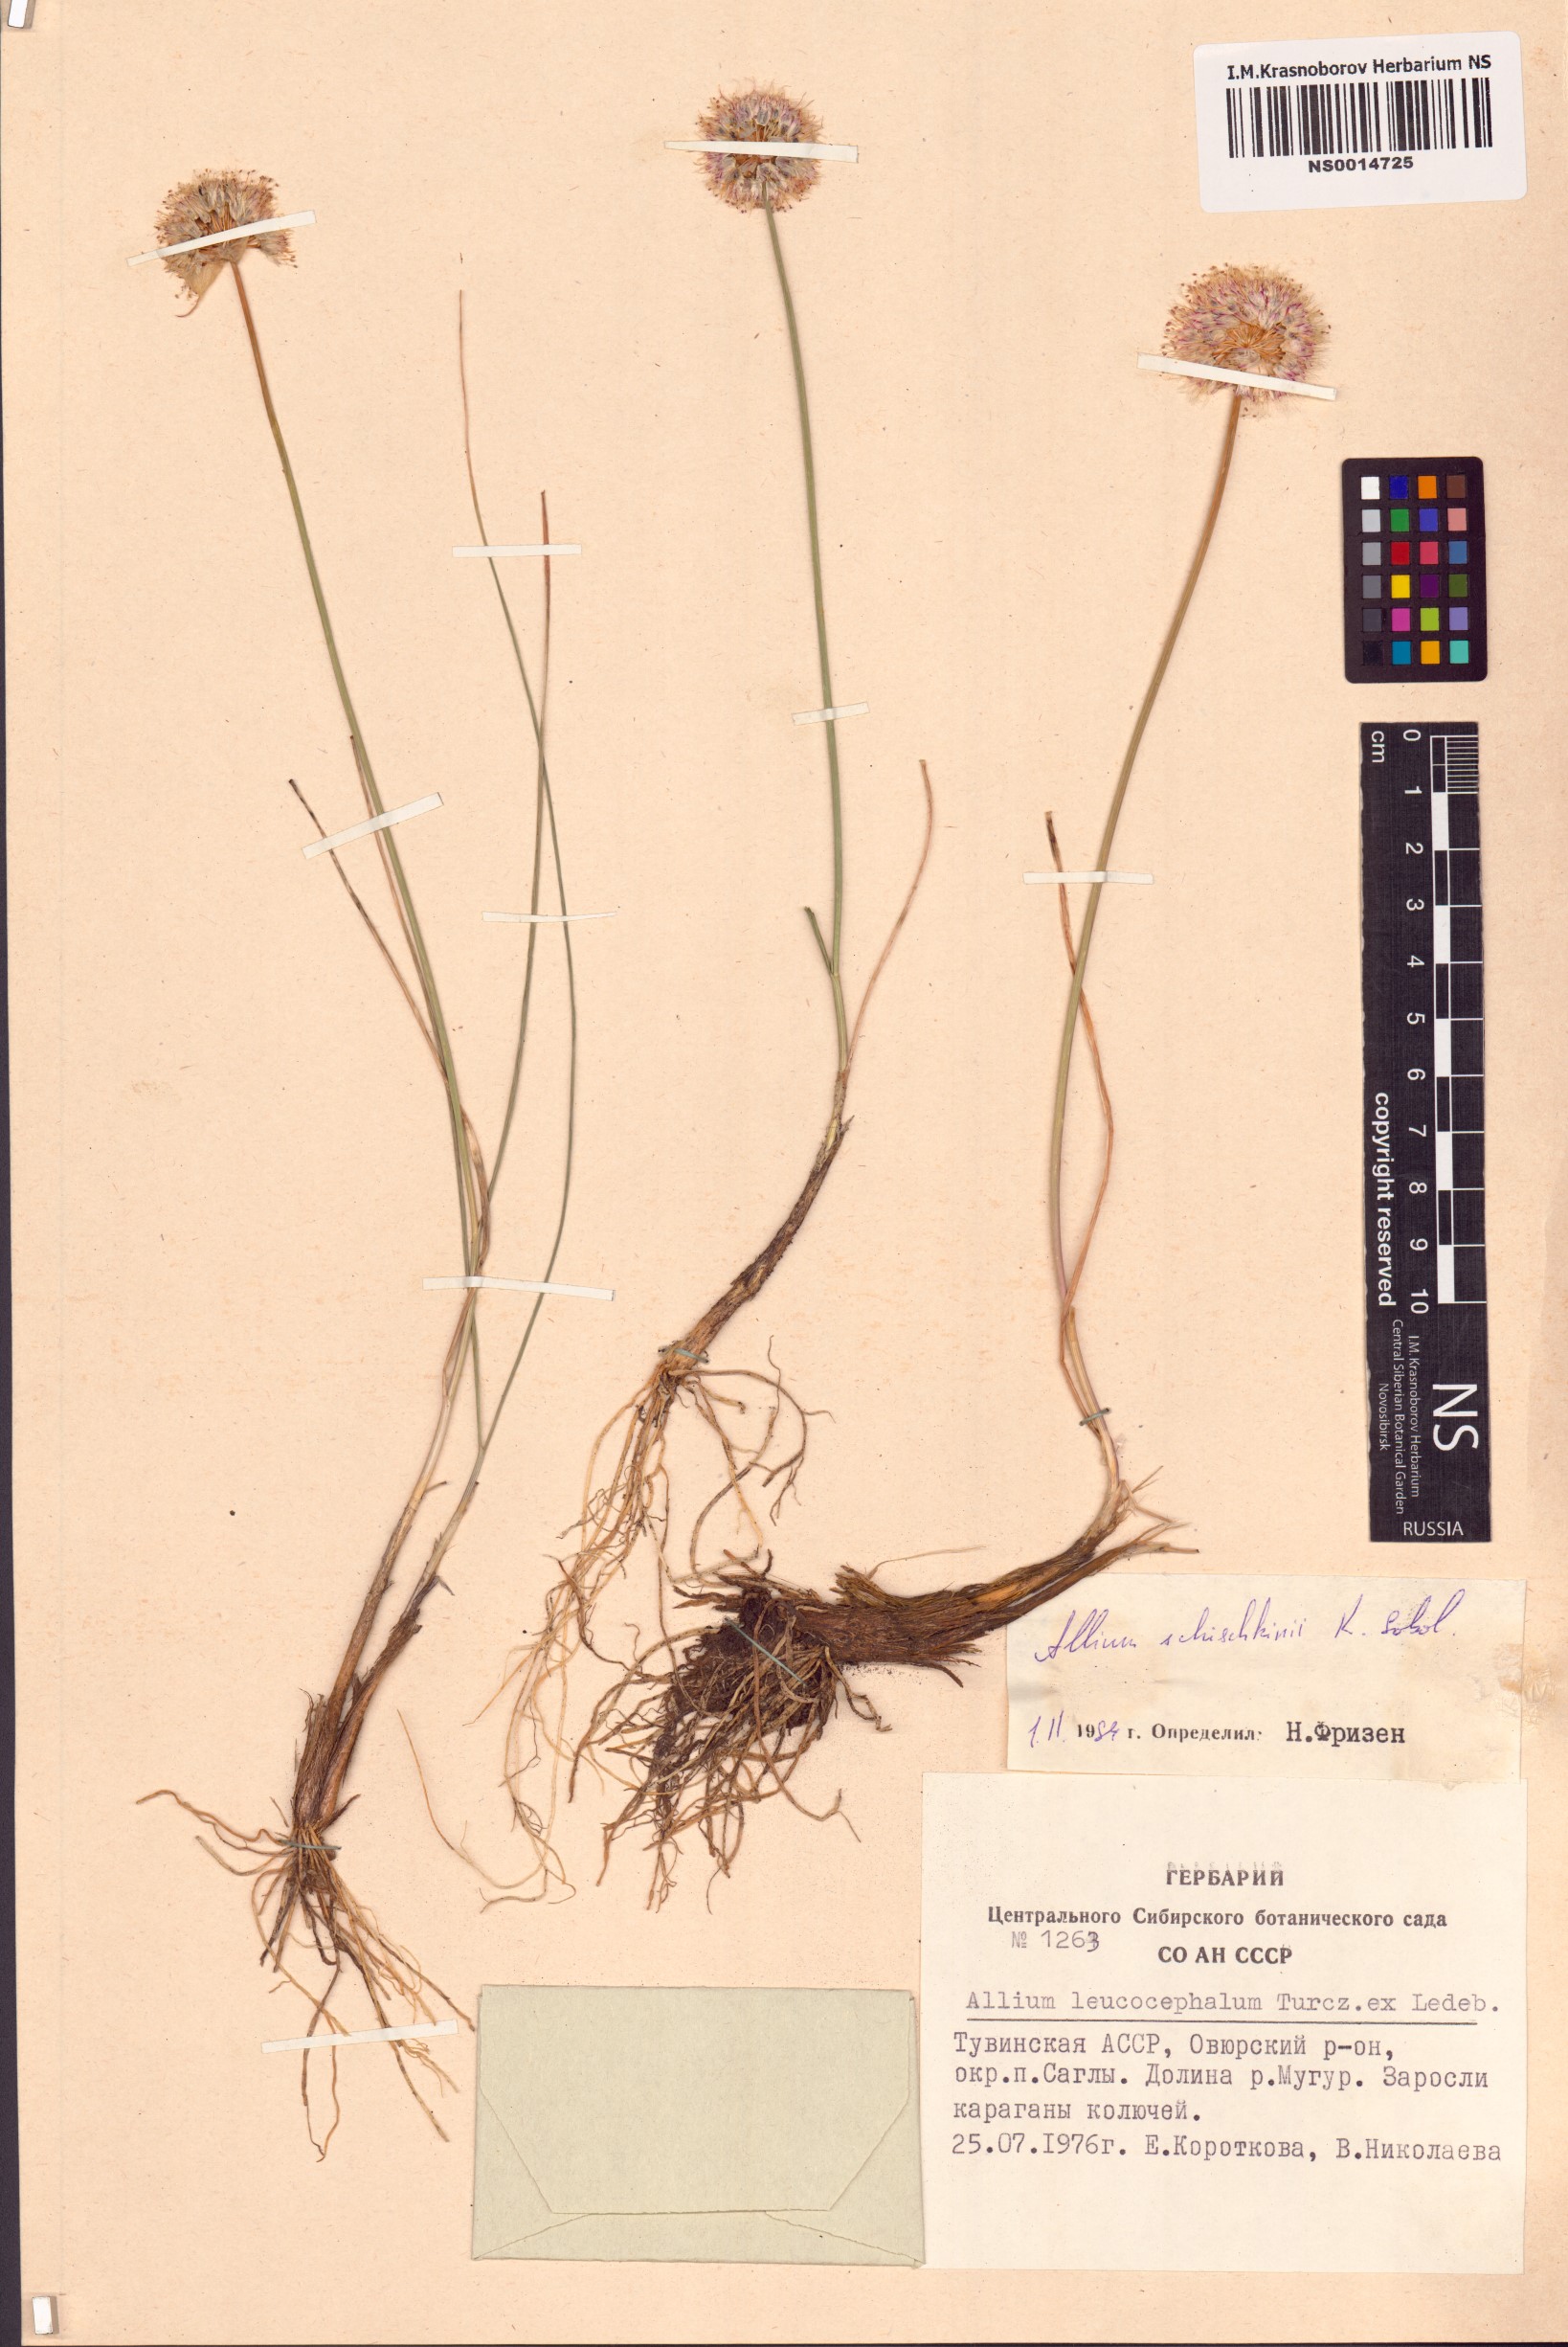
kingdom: Plantae
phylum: Tracheophyta
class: Liliopsida
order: Asparagales
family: Amaryllidaceae
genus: Allium
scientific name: Allium schischkinii
